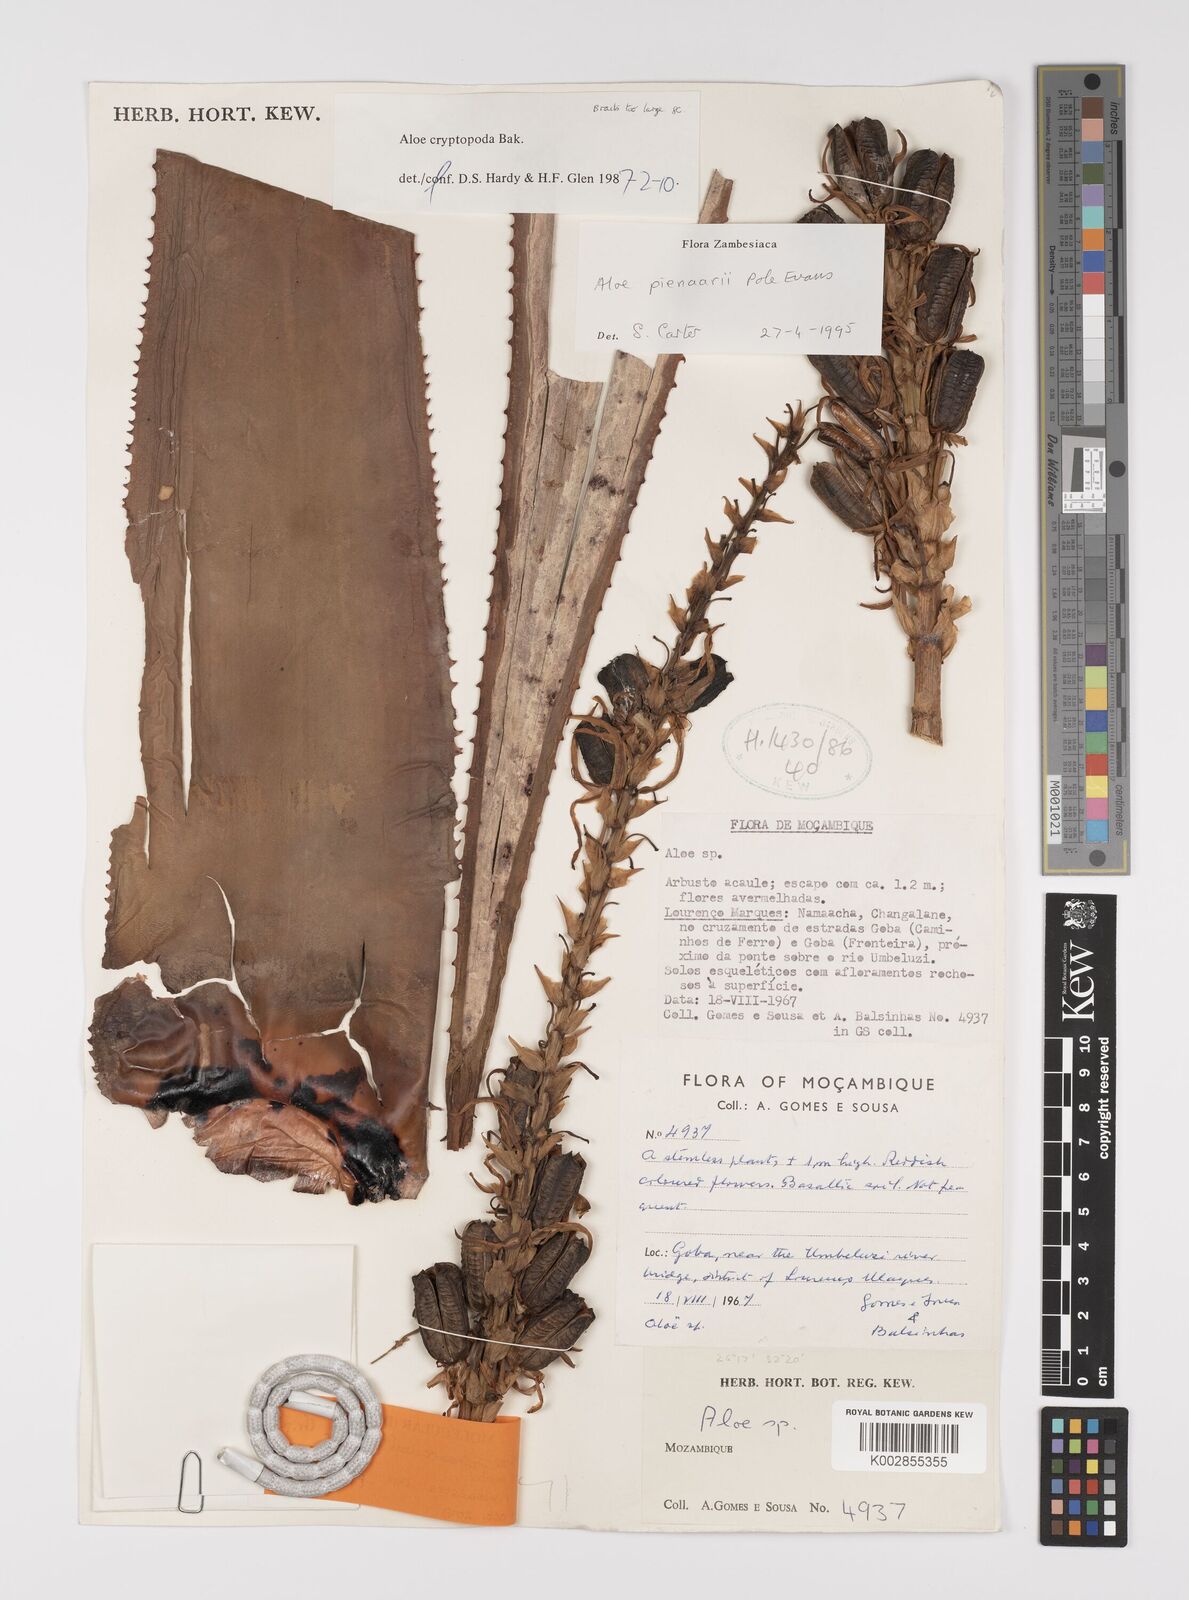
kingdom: Plantae
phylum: Tracheophyta
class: Liliopsida
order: Asparagales
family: Asphodelaceae
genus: Aloe
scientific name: Aloe pienaarii
